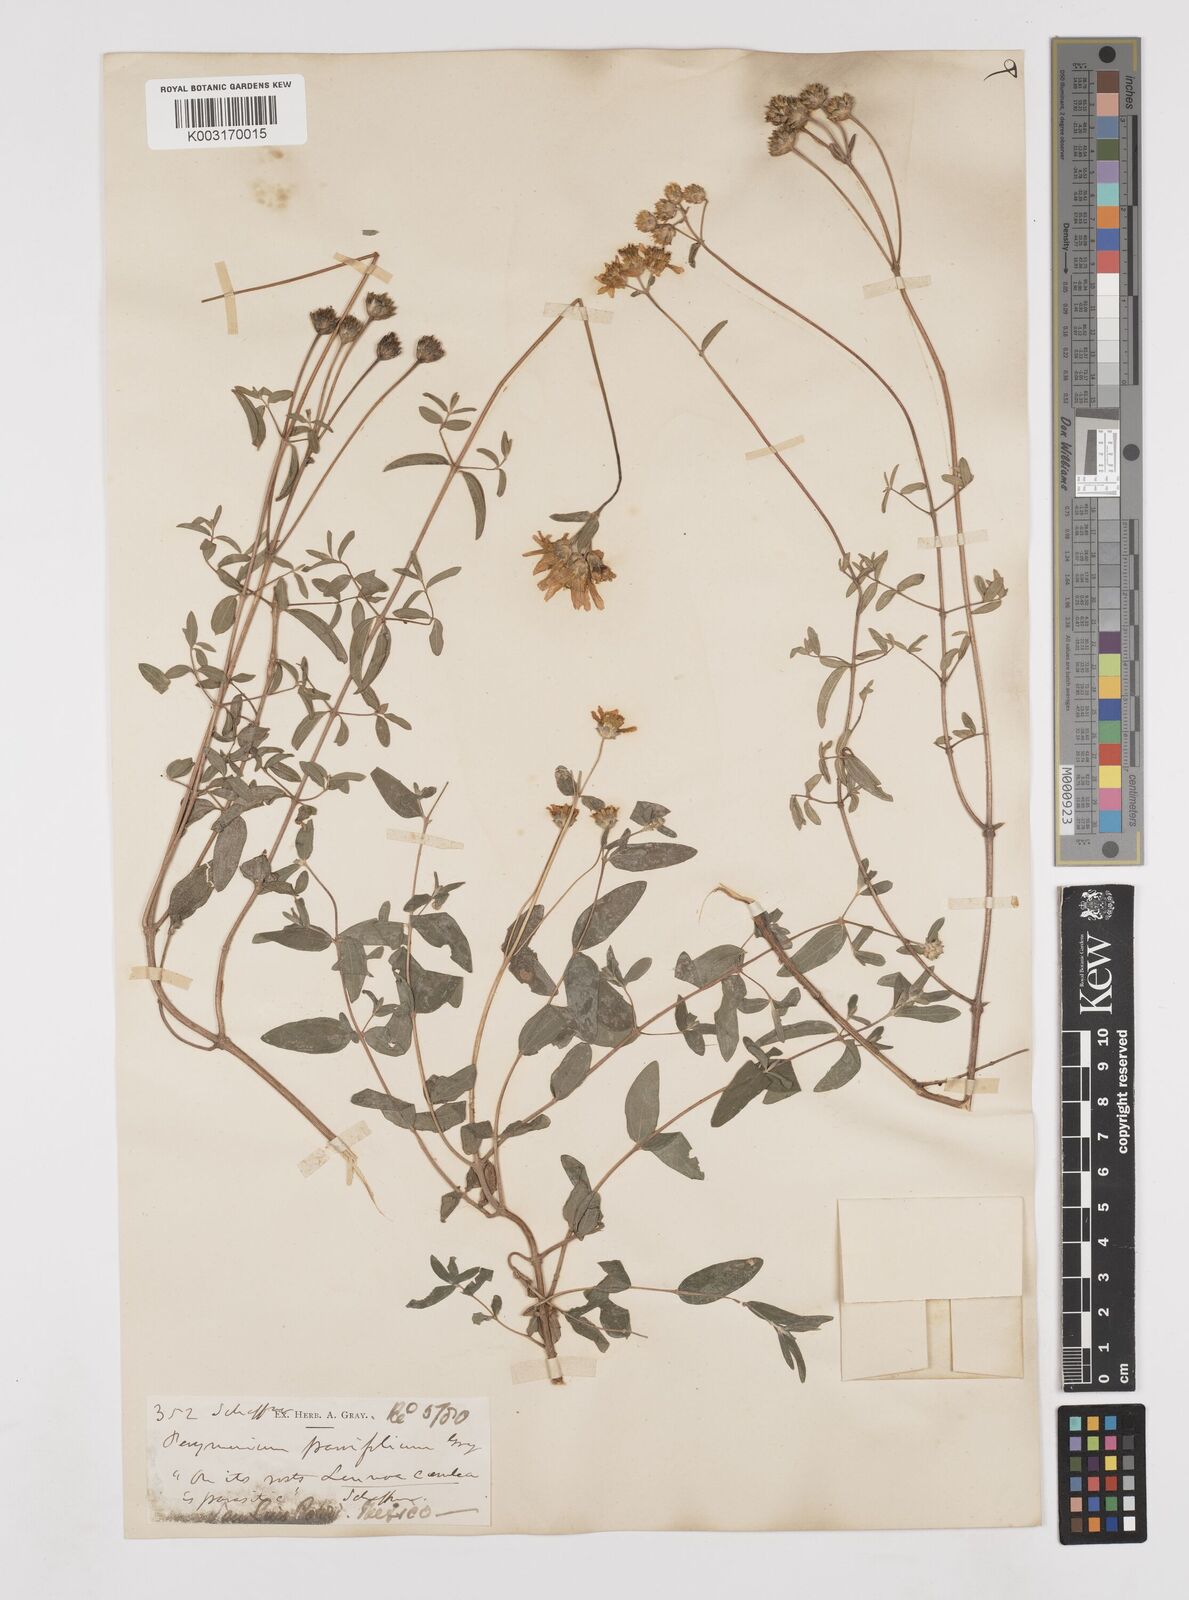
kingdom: Plantae
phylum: Tracheophyta
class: Magnoliopsida
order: Asterales
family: Asteraceae
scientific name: Asteraceae
